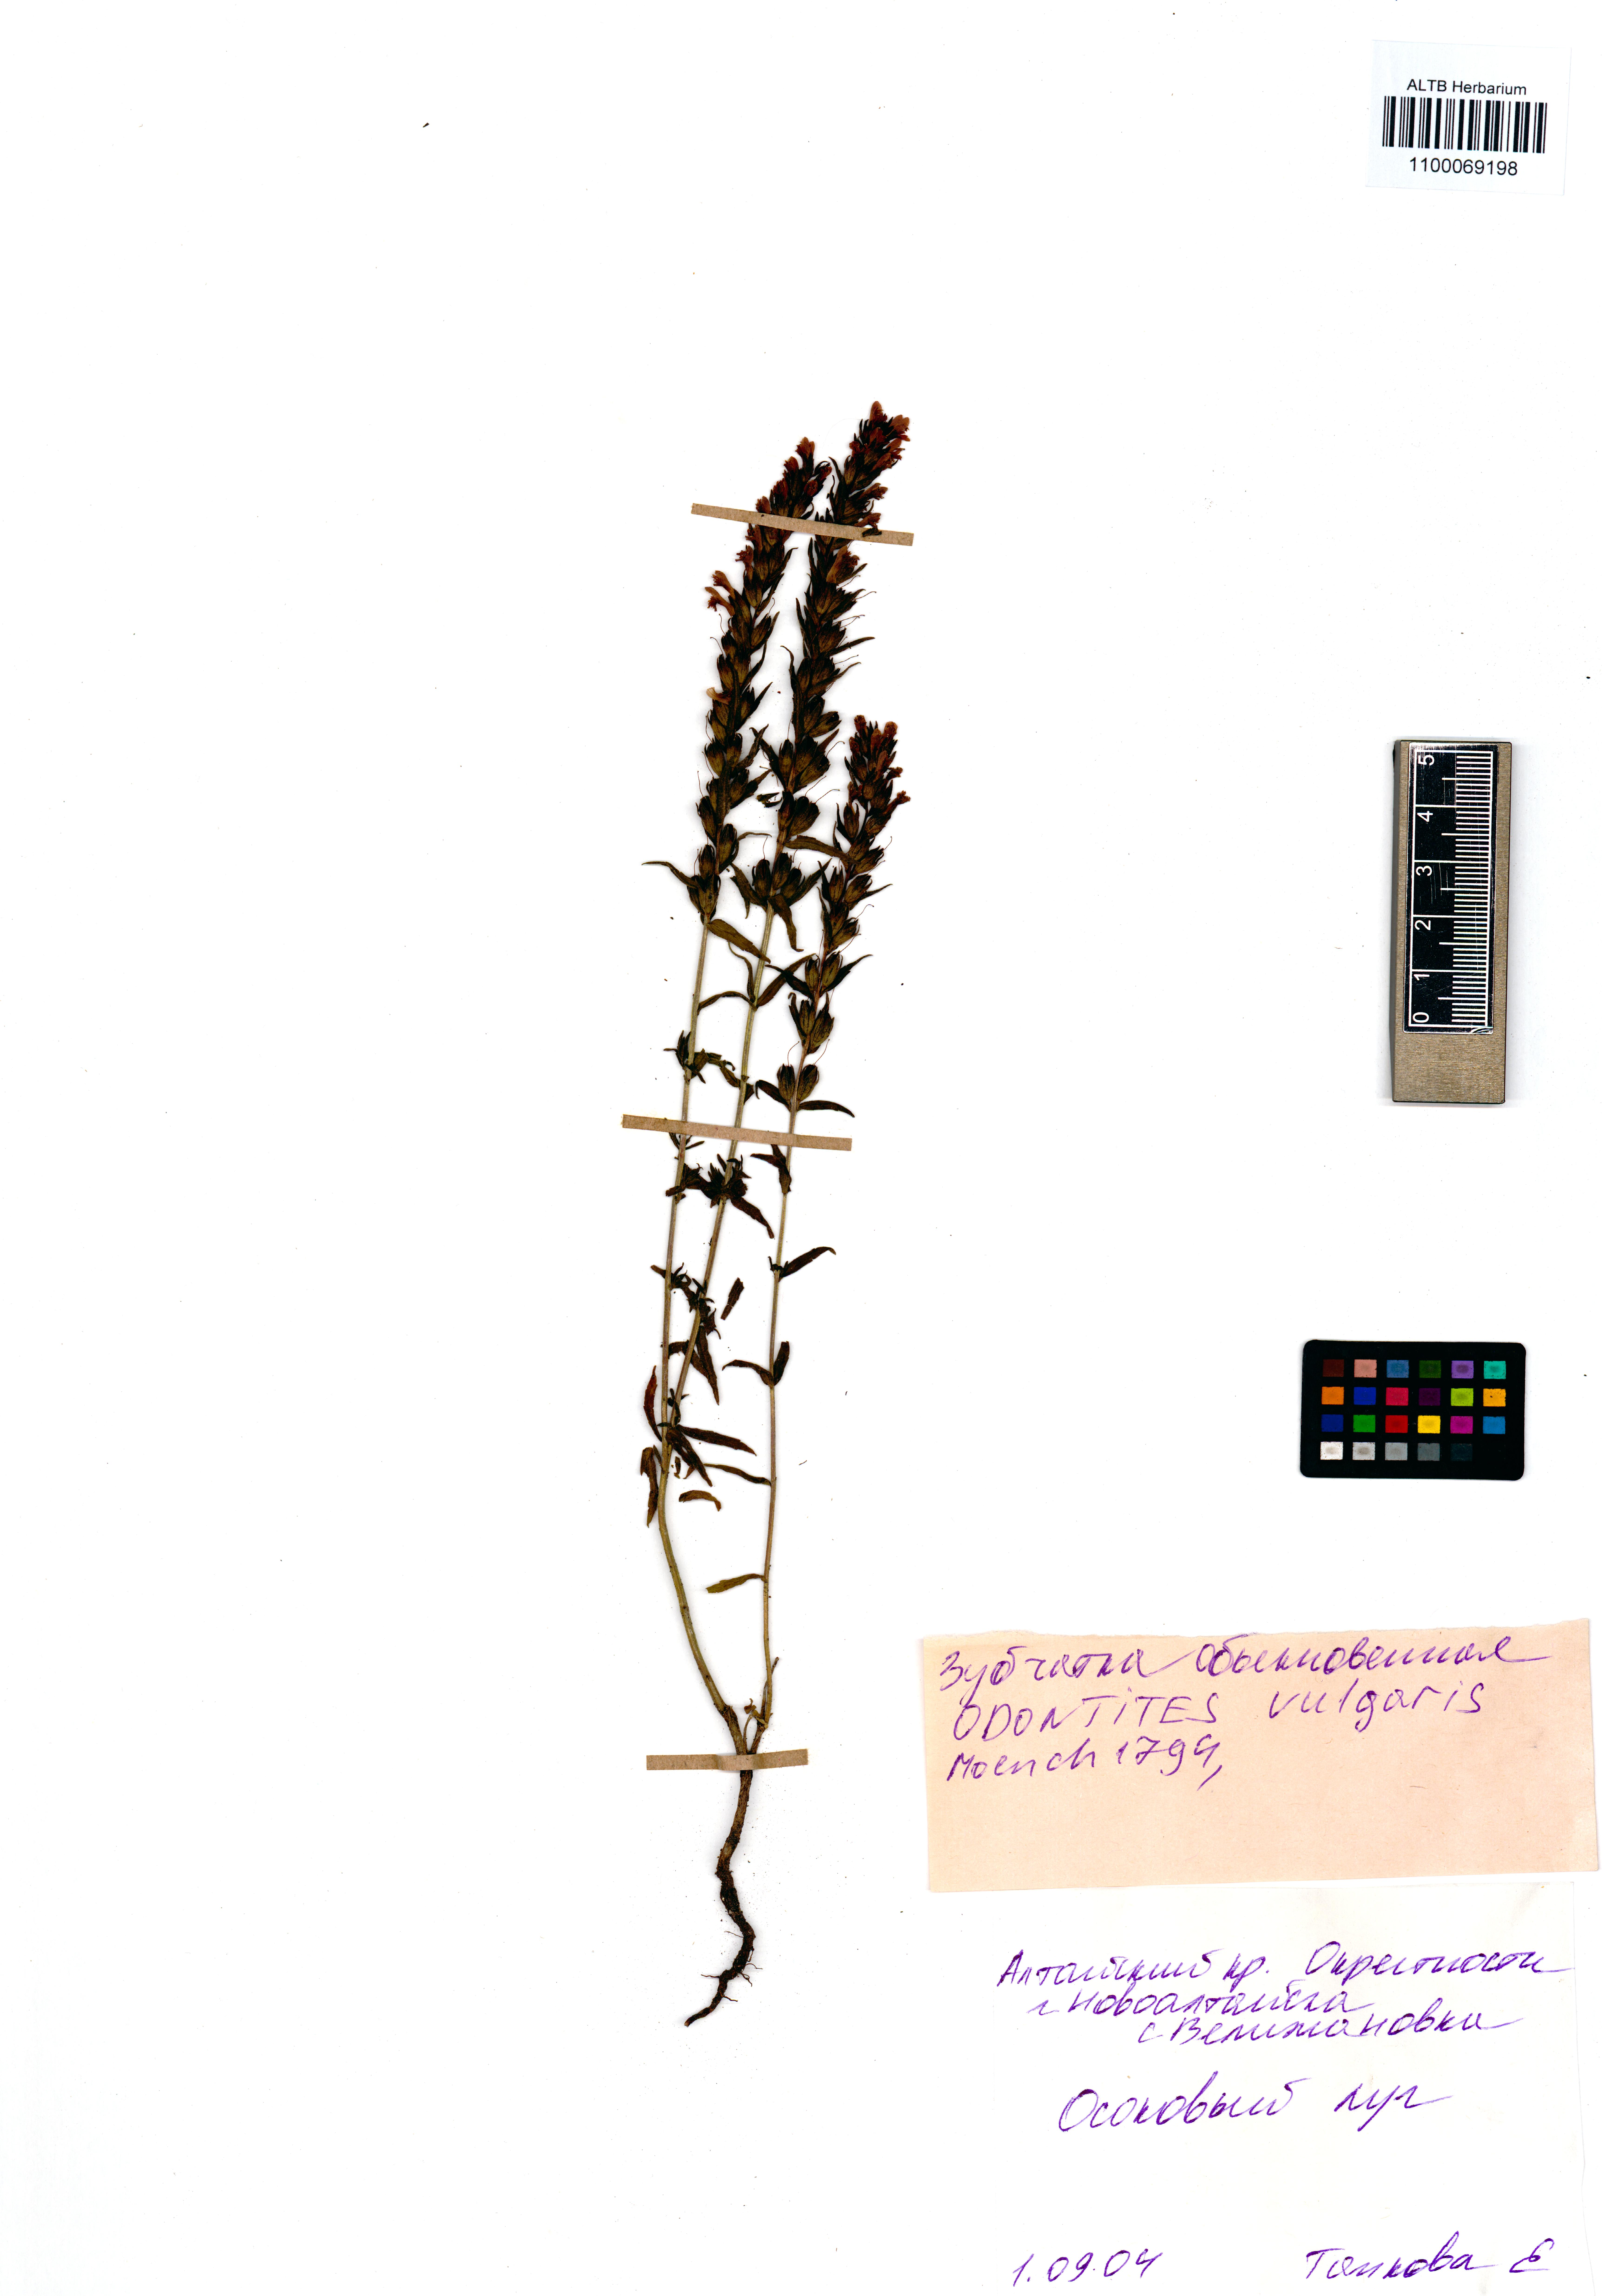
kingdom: Plantae
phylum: Tracheophyta
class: Magnoliopsida
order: Lamiales
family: Orobanchaceae
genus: Odontites
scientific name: Odontites vulgaris
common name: Broomrape
